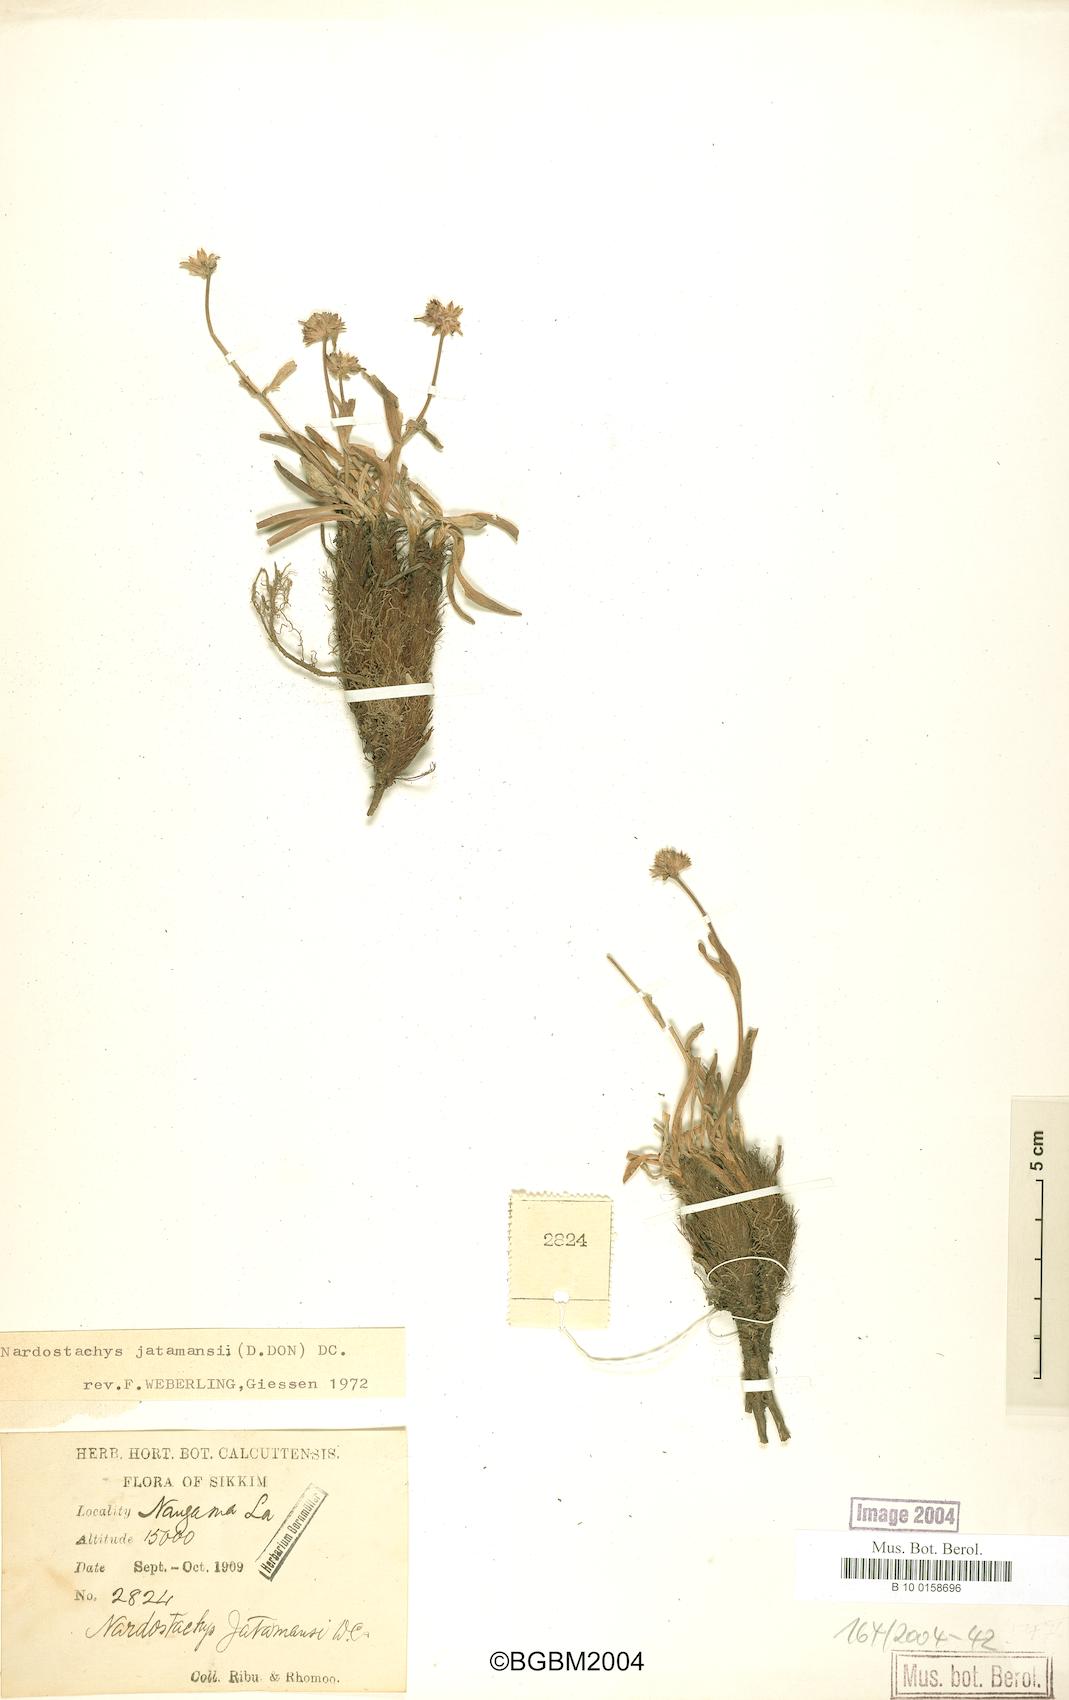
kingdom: Plantae
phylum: Tracheophyta
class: Magnoliopsida
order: Dipsacales
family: Caprifoliaceae
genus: Nardostachys
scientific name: Nardostachys jatamansi
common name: Indian nard
